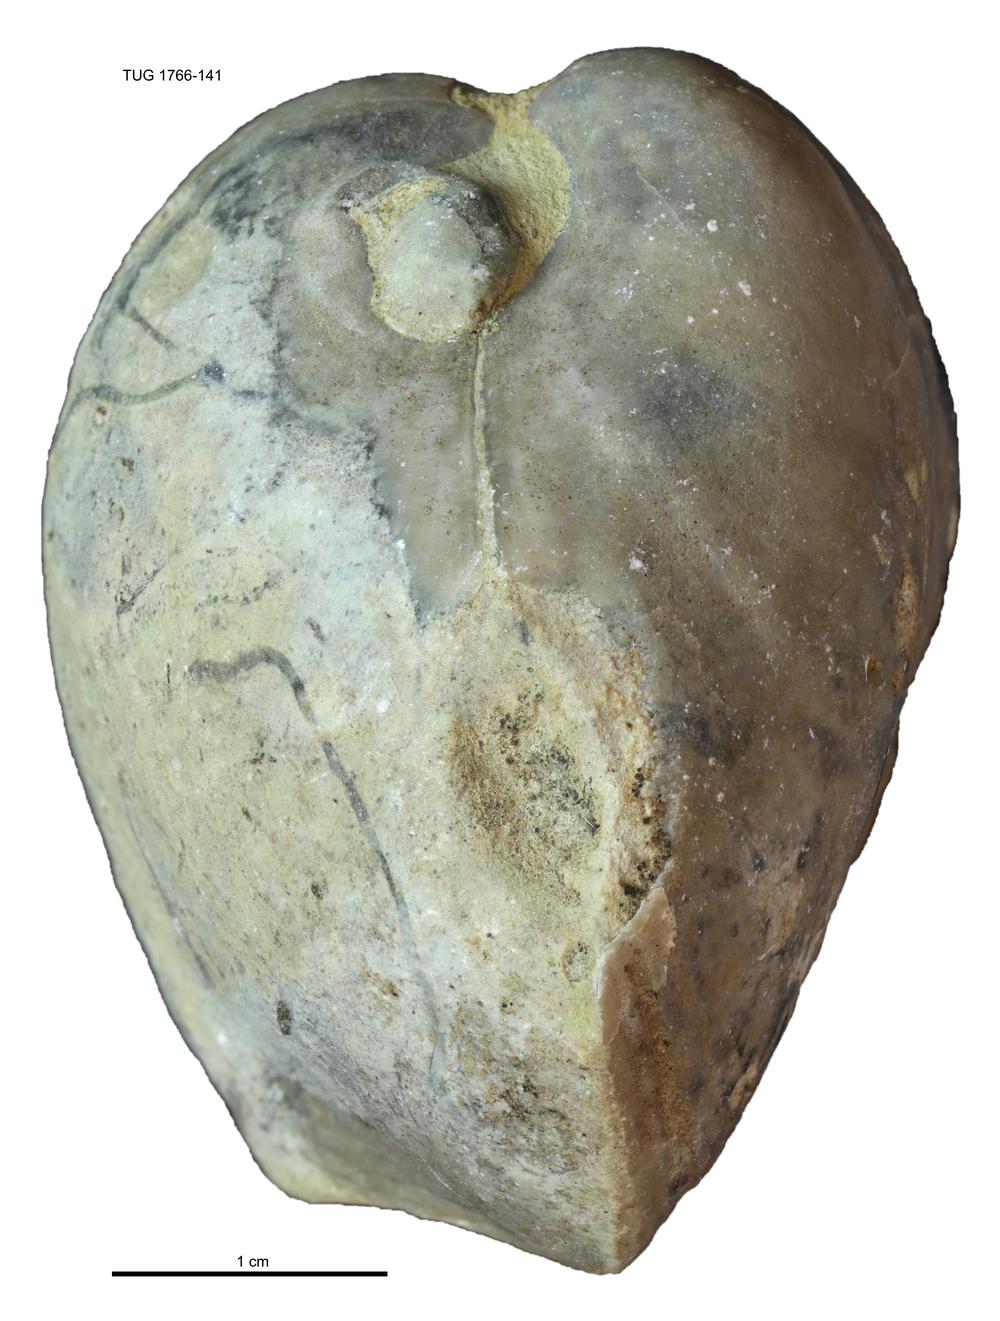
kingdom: Animalia
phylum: Brachiopoda
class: Rhynchonellata
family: Porambonitidae
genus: Porambonites
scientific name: Porambonites
